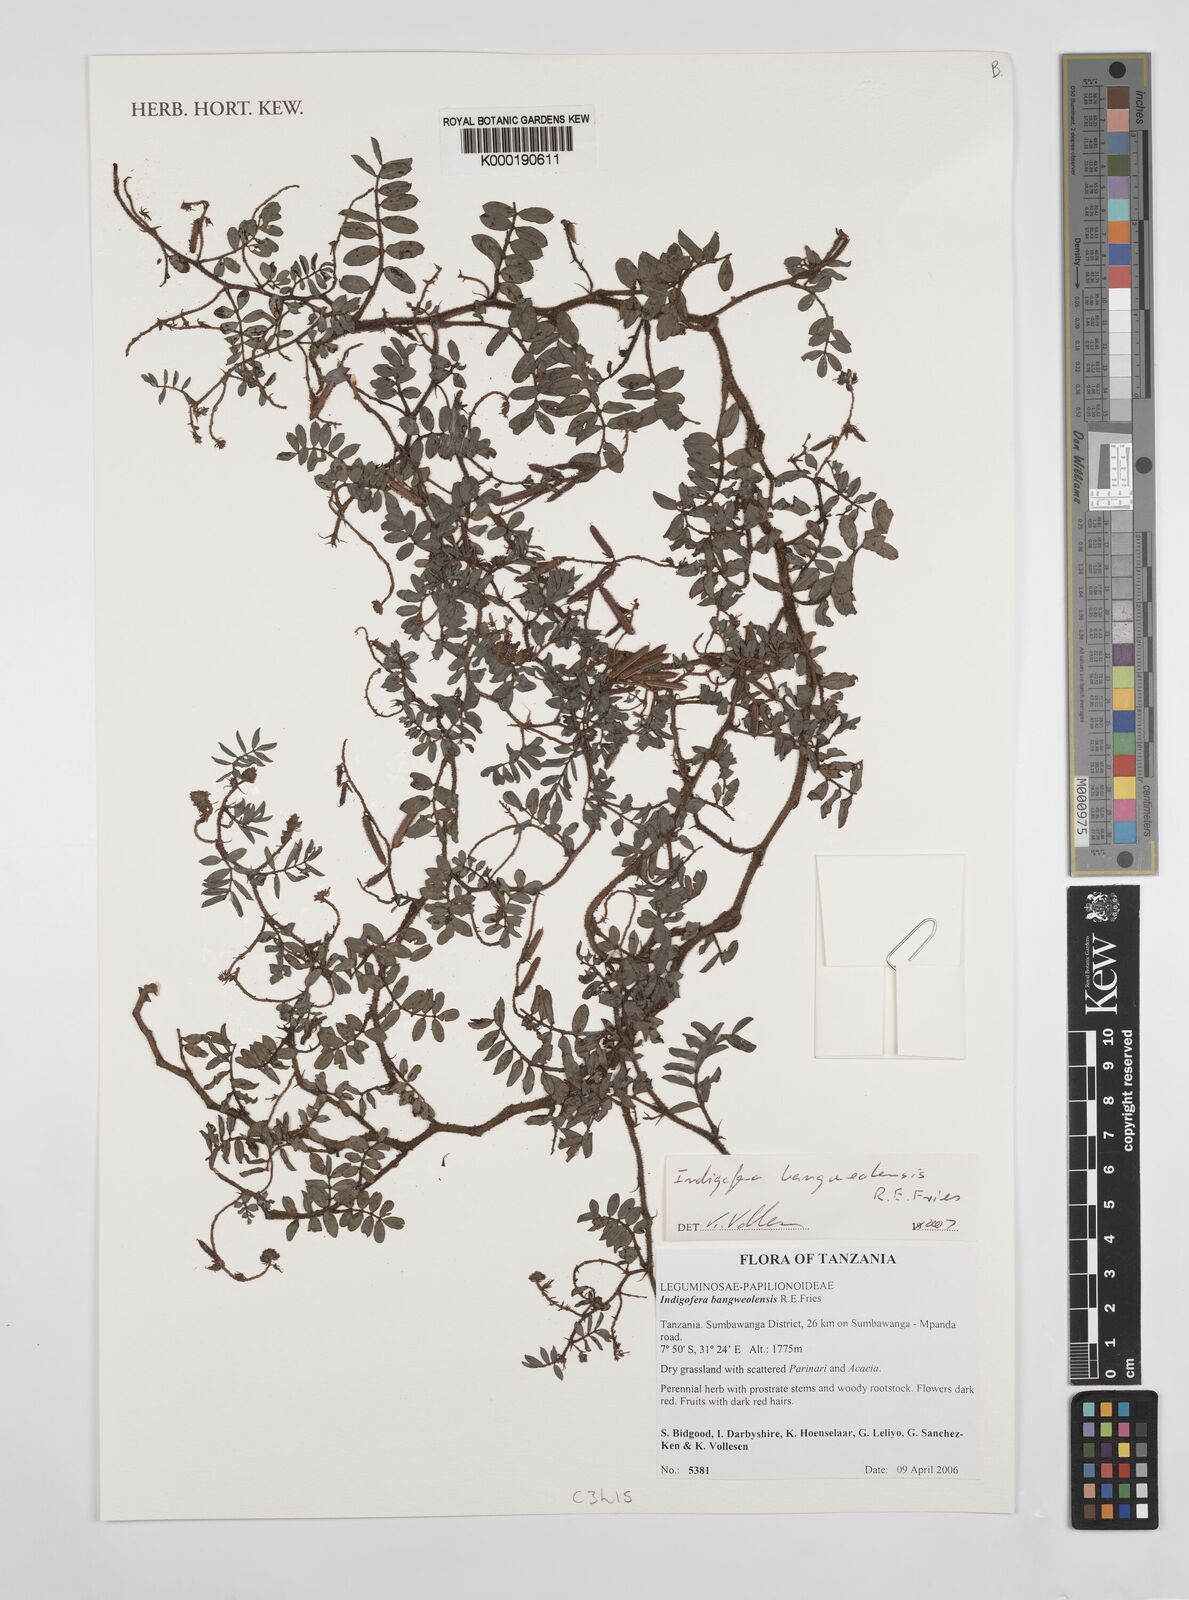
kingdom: Plantae
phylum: Tracheophyta
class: Magnoliopsida
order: Fabales
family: Fabaceae
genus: Indigofera
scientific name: Indigofera
